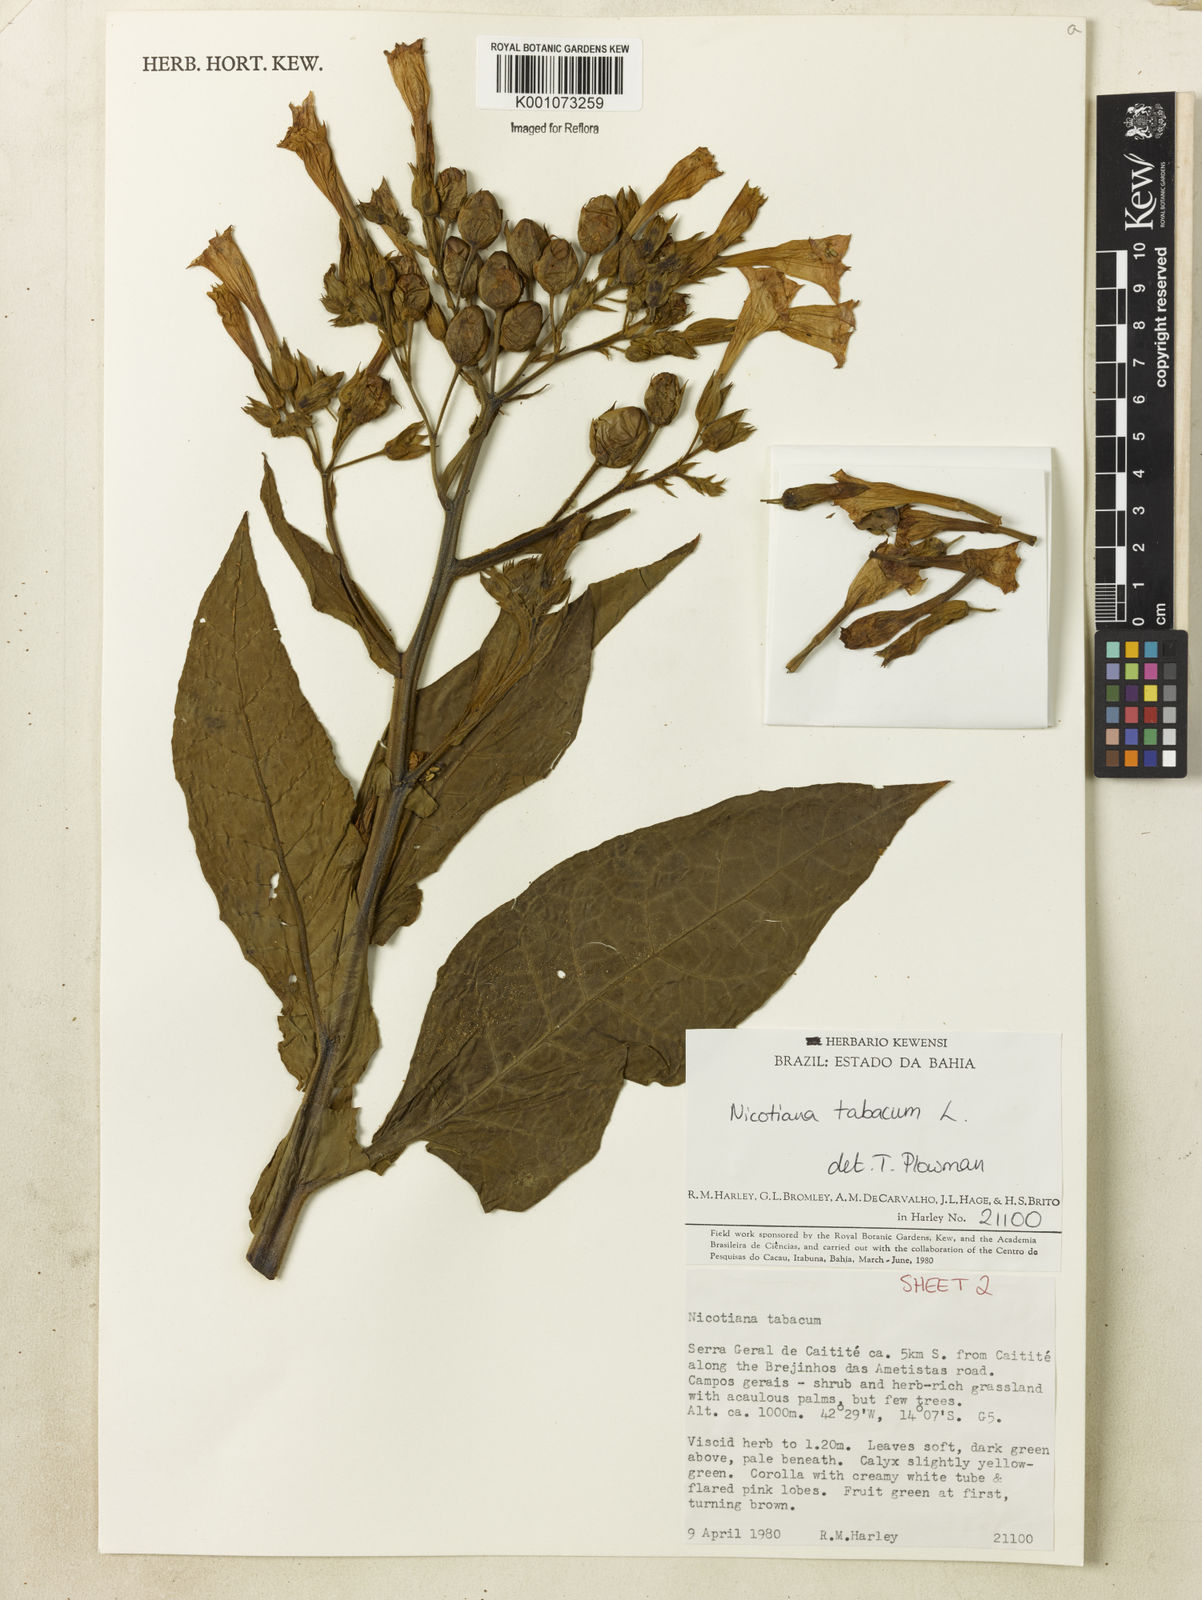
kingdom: Plantae
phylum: Tracheophyta
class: Magnoliopsida
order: Solanales
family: Solanaceae
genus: Nicotiana
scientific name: Nicotiana tabacum
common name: Tobacco
